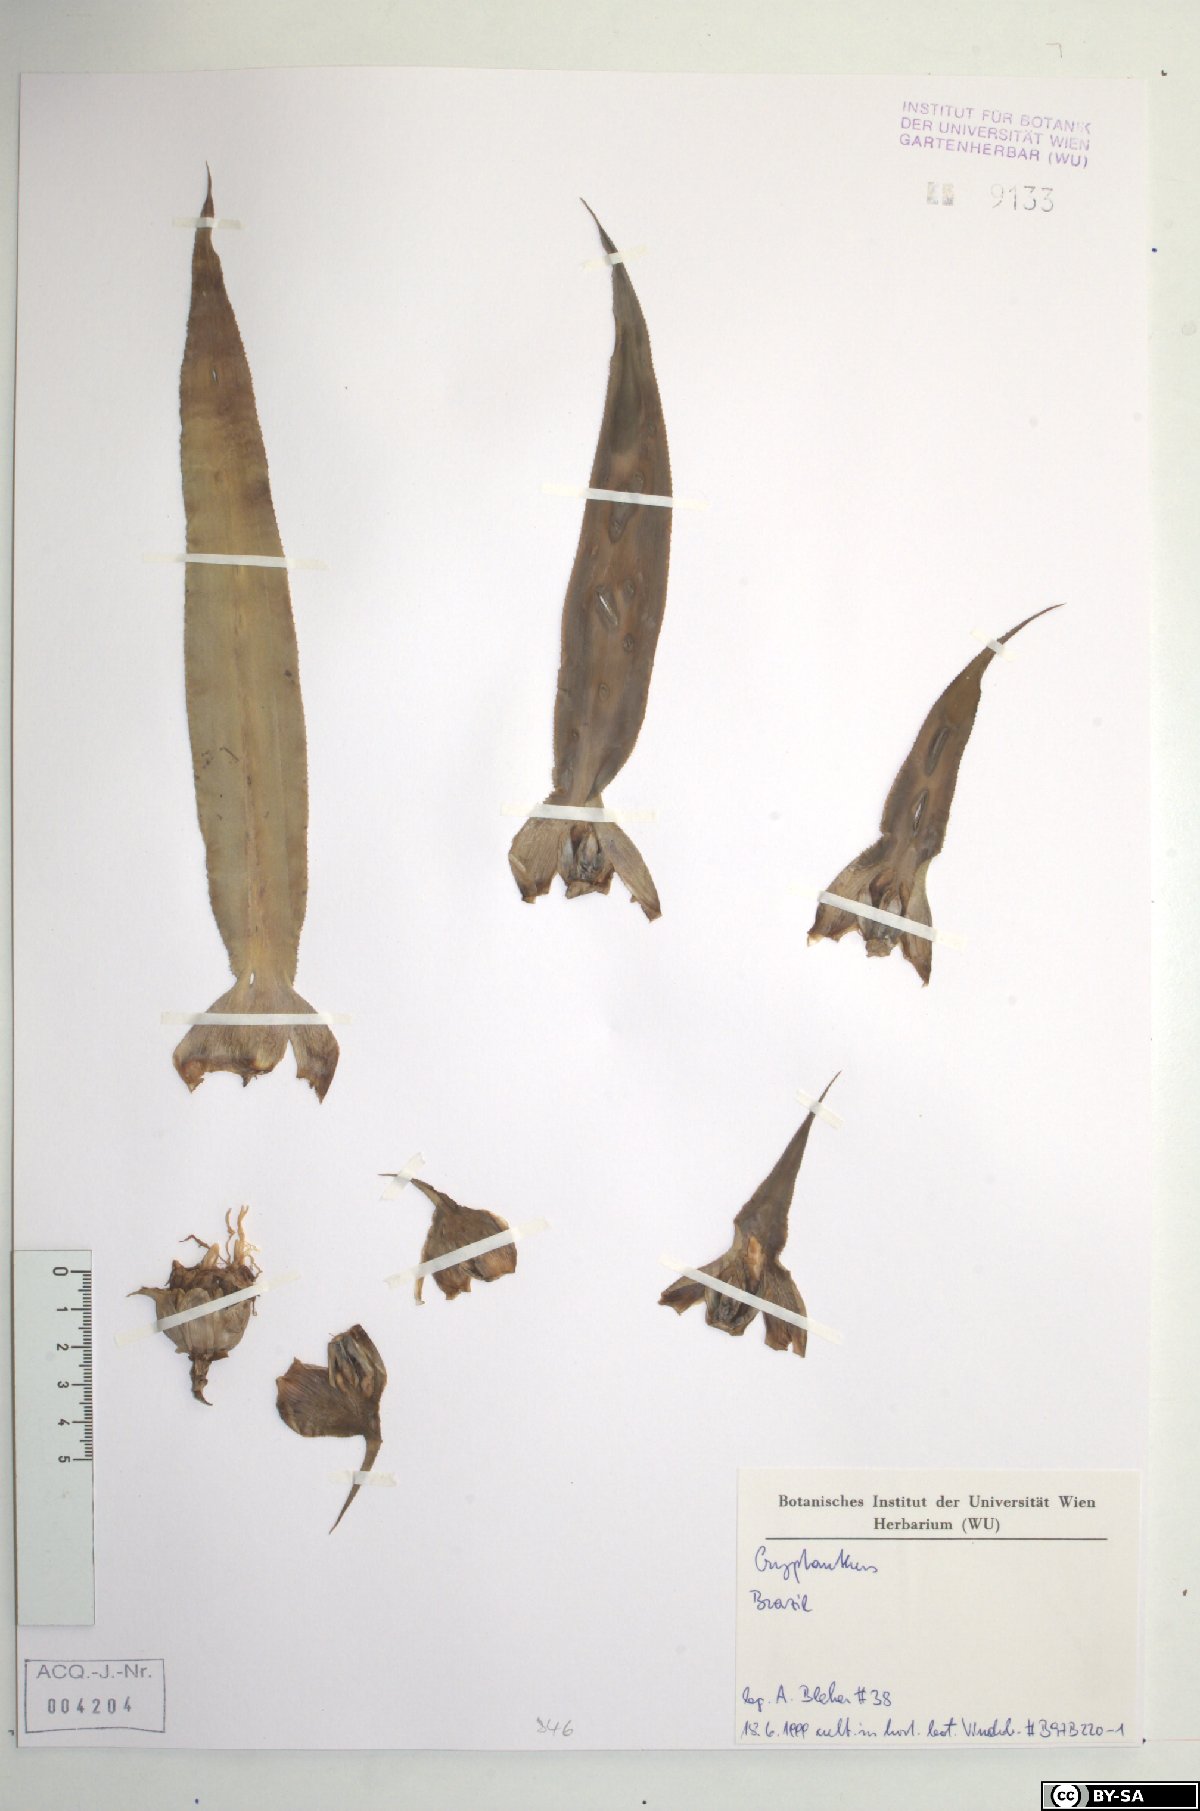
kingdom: Plantae
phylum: Tracheophyta
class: Liliopsida
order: Poales
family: Bromeliaceae
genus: Cryptanthus
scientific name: Cryptanthus
